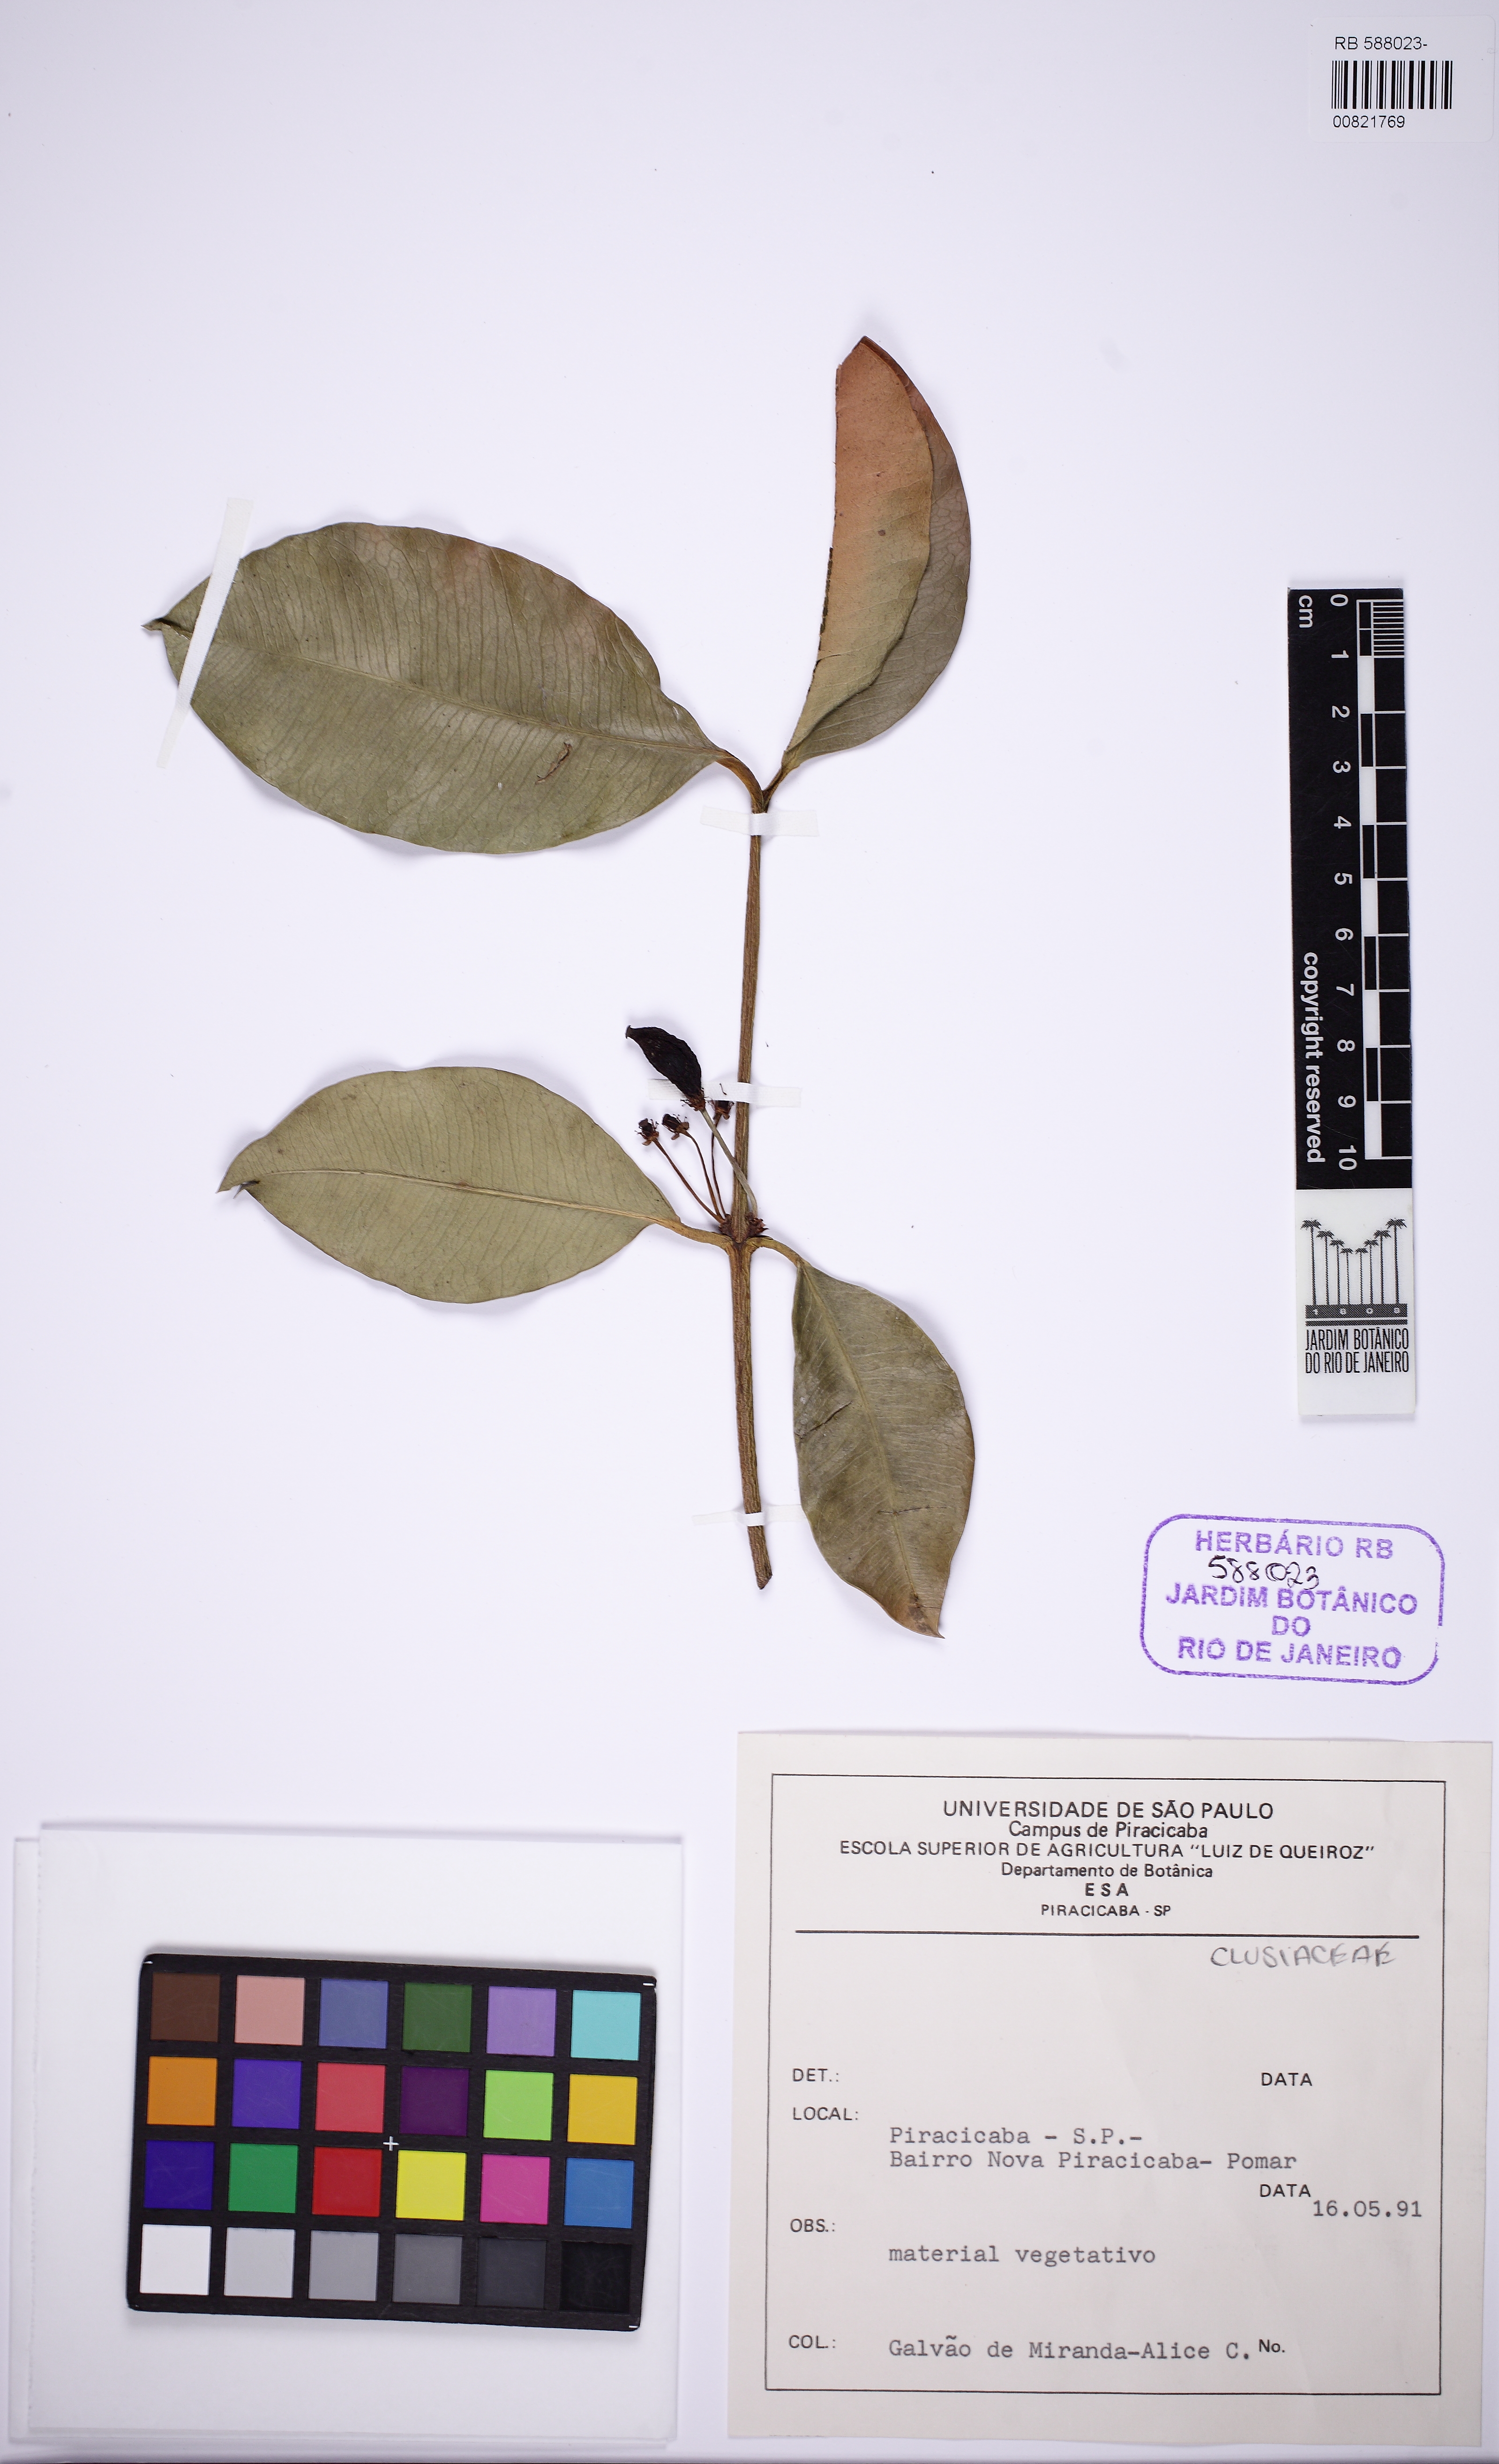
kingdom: Plantae
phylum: Tracheophyta
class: Magnoliopsida
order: Malpighiales
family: Clusiaceae
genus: Garcinia
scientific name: Garcinia benthamiana
